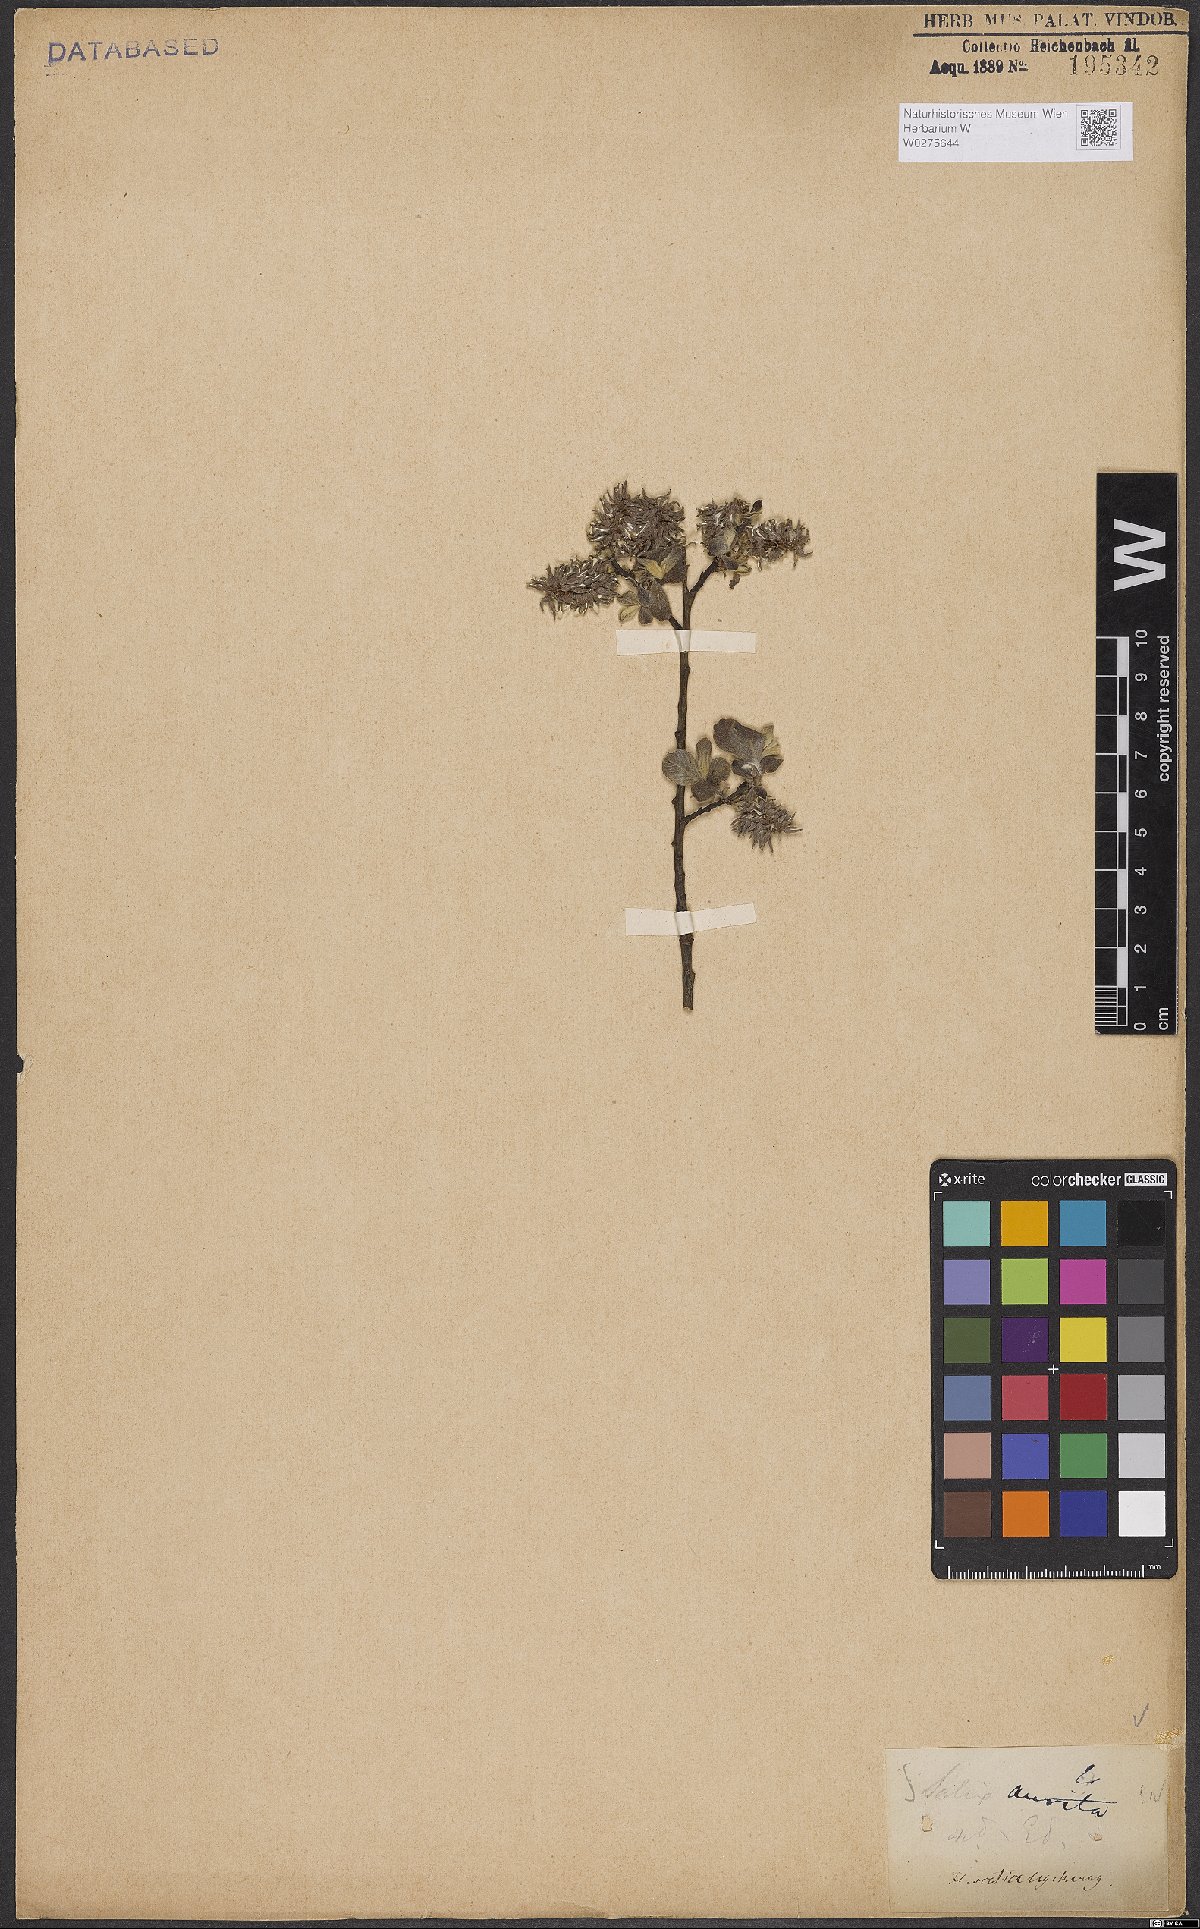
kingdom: Plantae
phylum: Tracheophyta
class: Magnoliopsida
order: Malpighiales
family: Salicaceae
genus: Salix
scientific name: Salix aurita
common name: Eared willow
